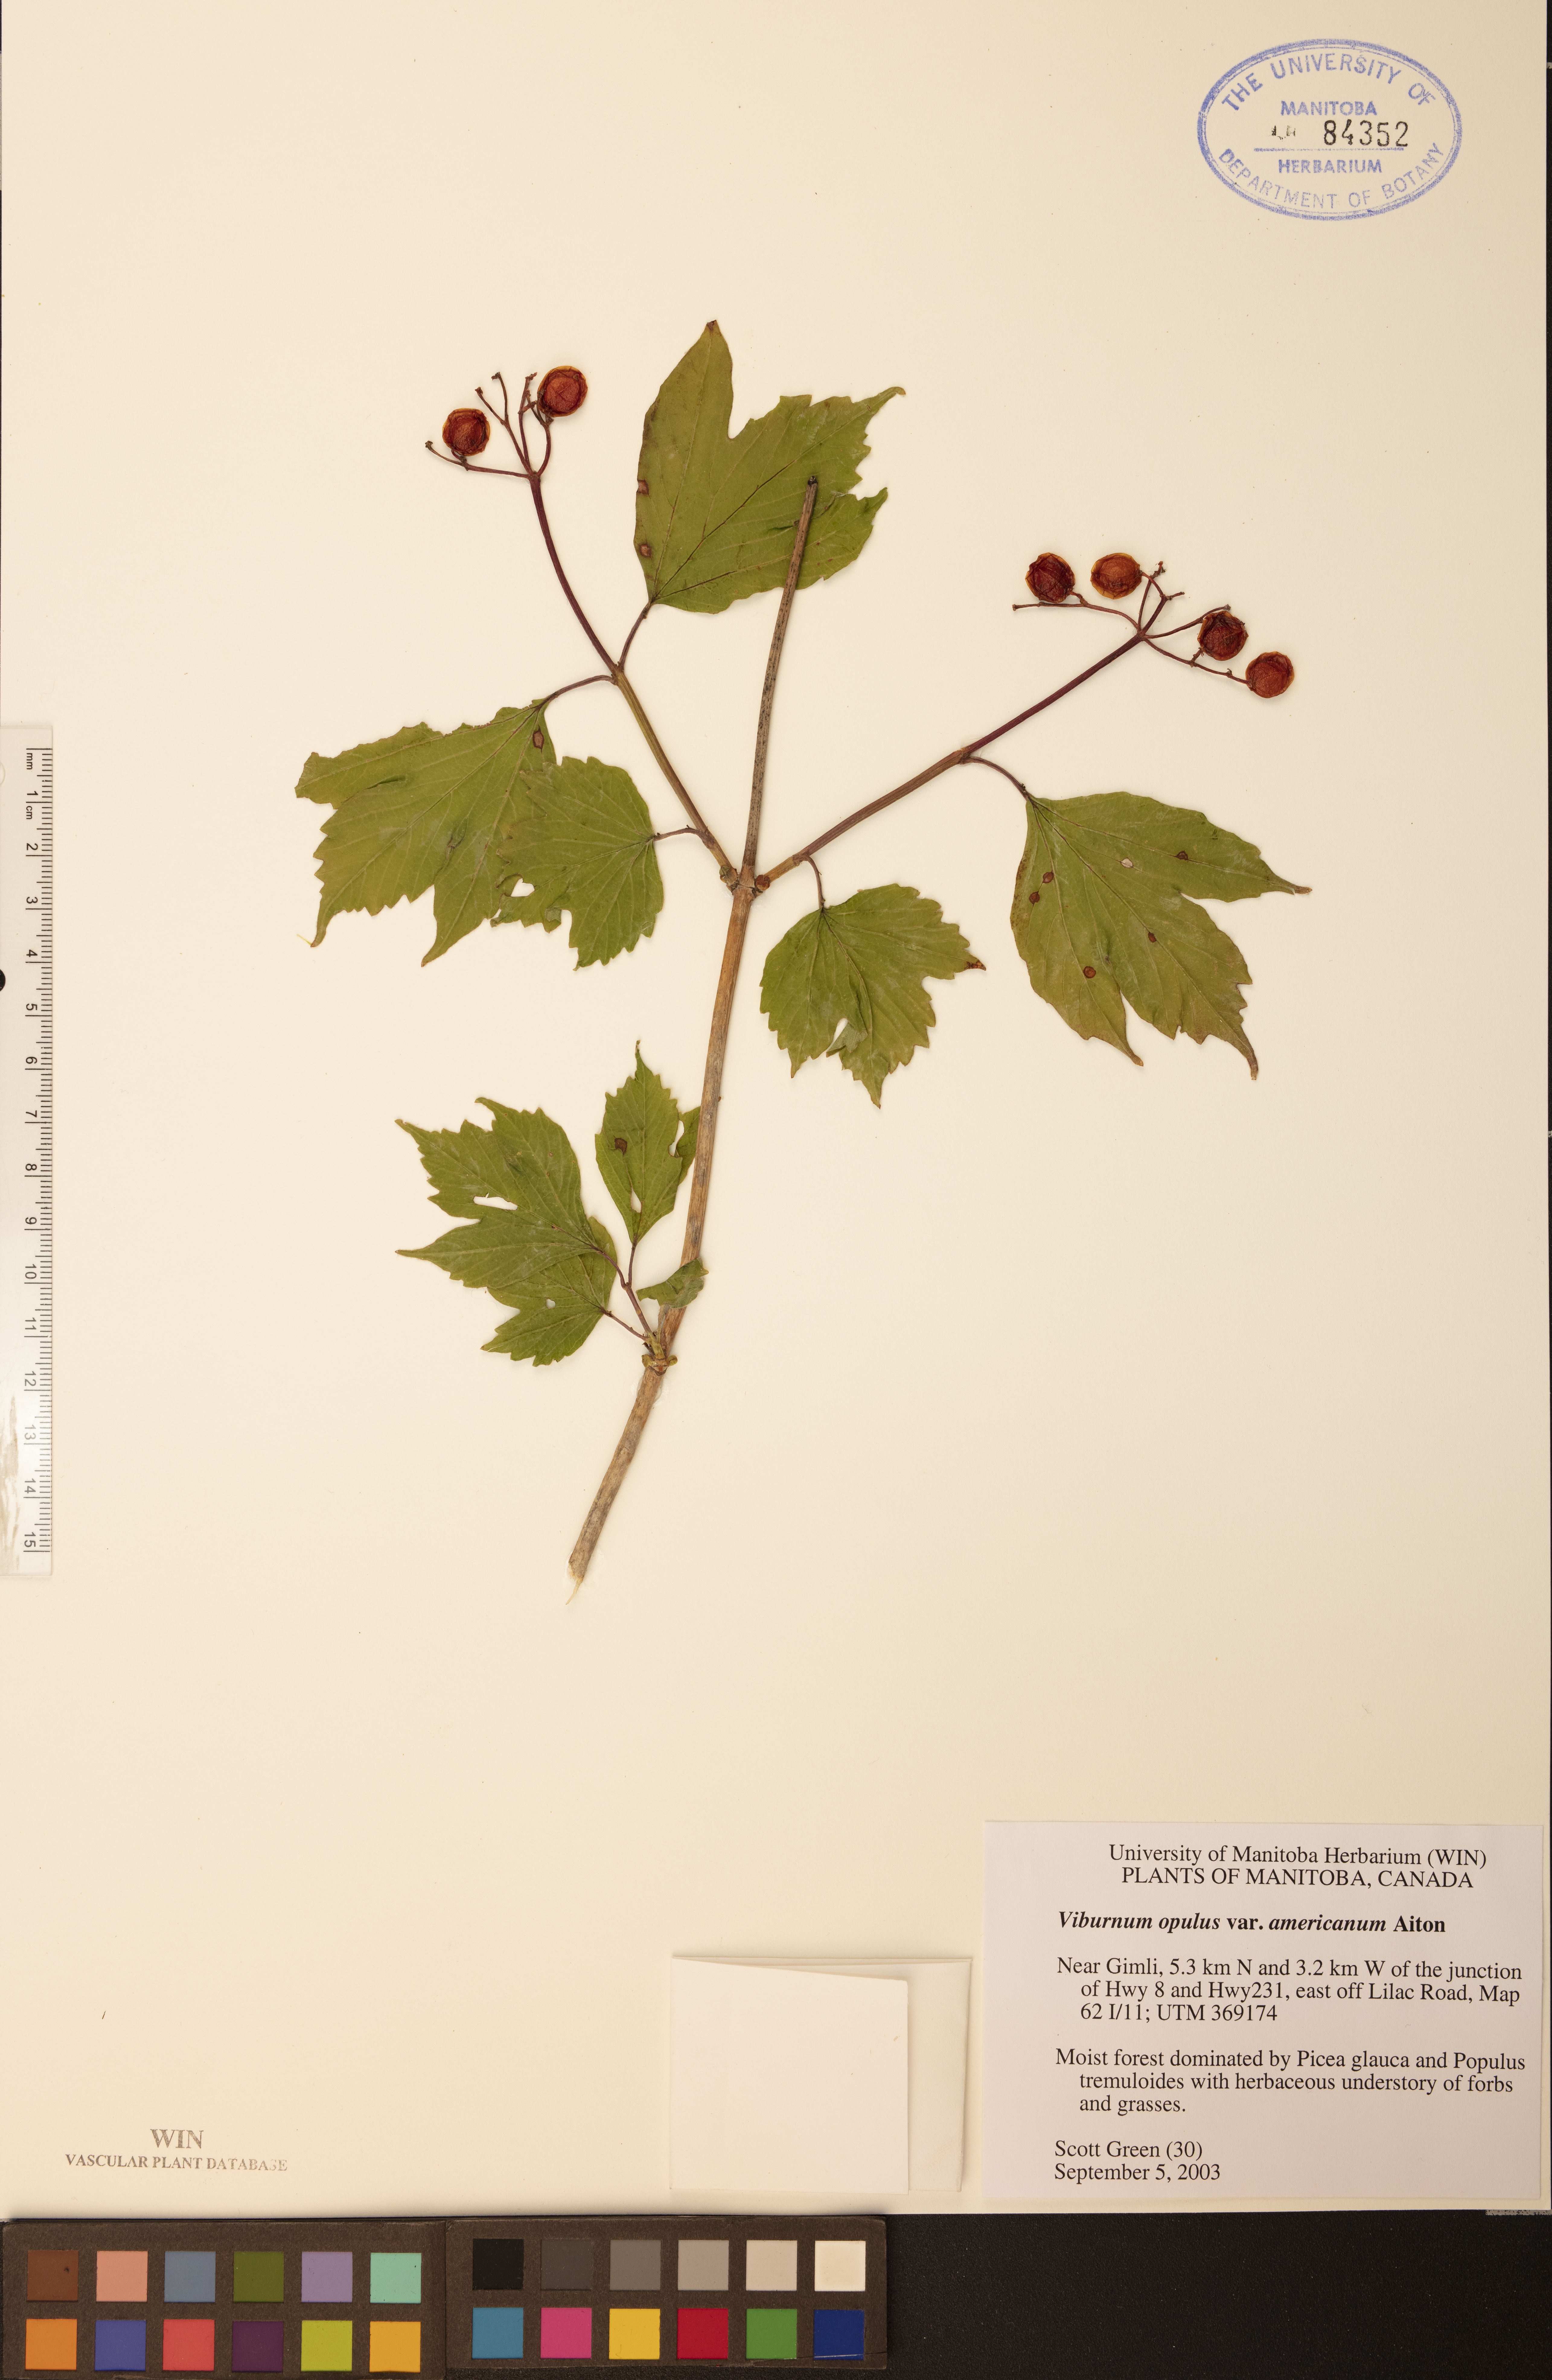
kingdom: Plantae
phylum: Tracheophyta
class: Magnoliopsida
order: Dipsacales
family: Viburnaceae
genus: Viburnum
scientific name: Viburnum trilobum
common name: American cranberrybush
